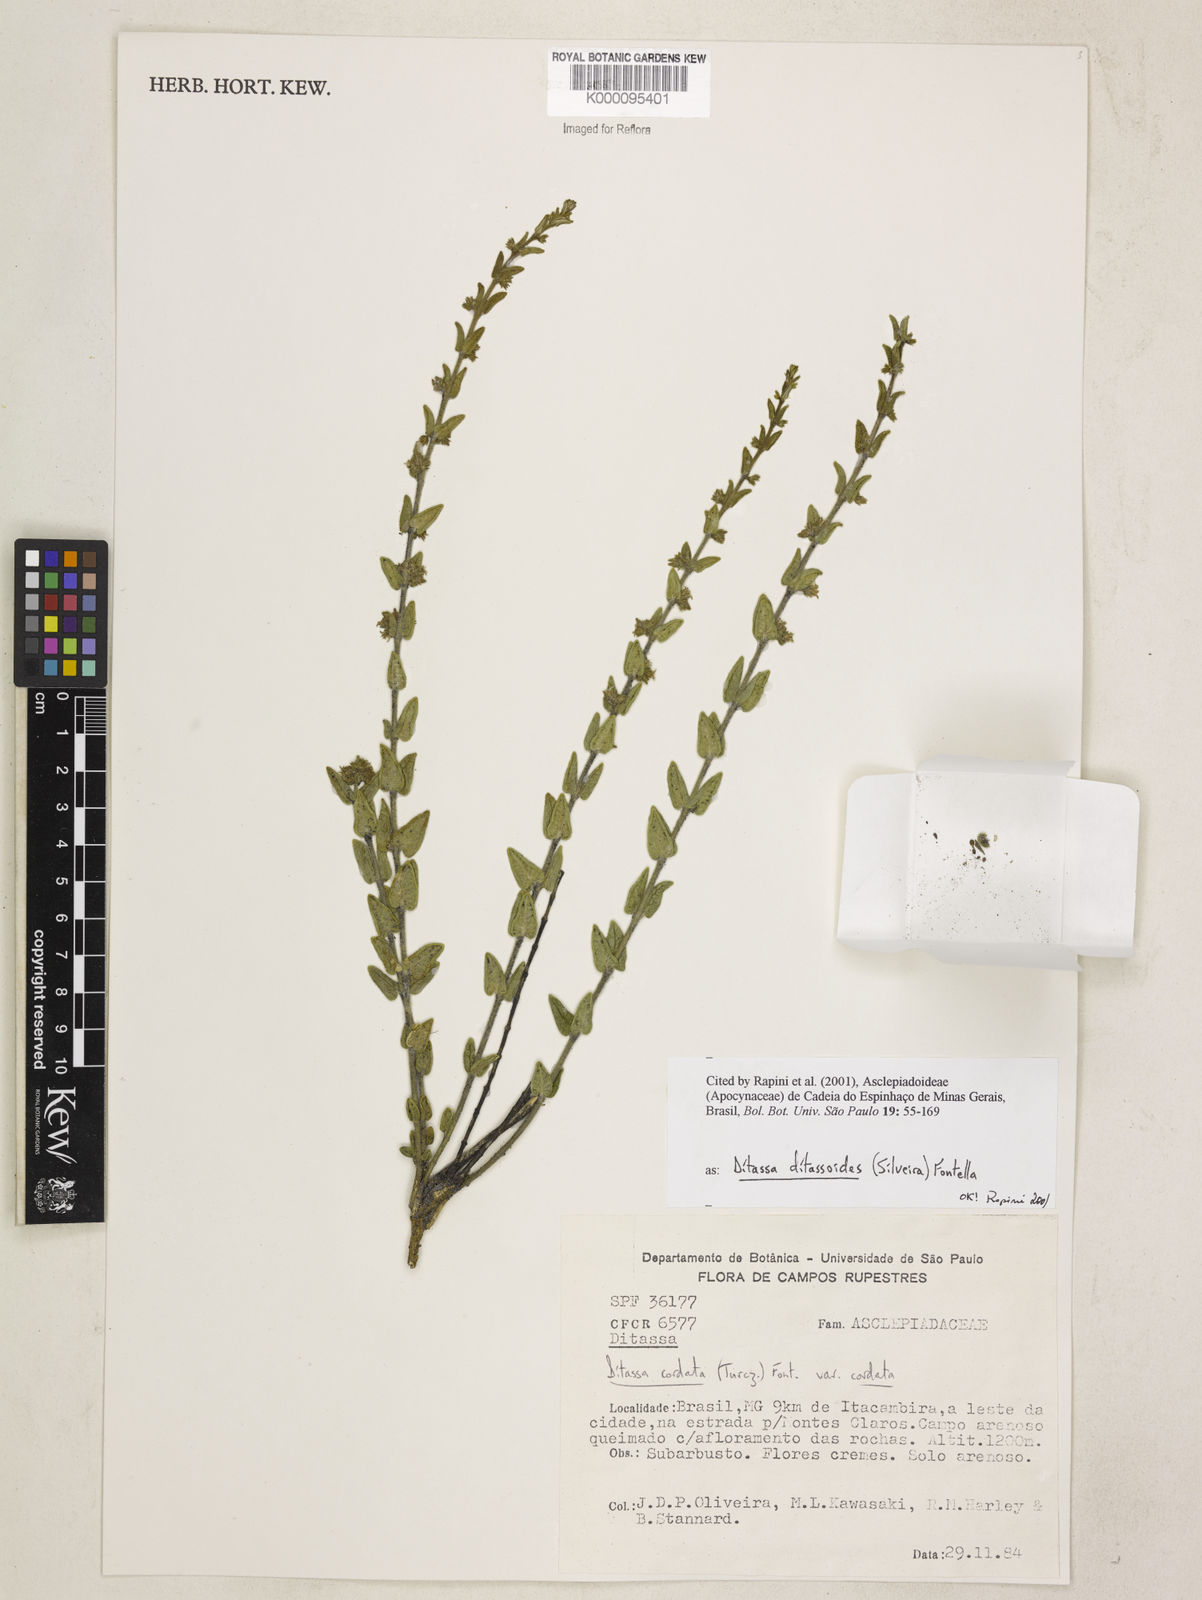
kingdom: Plantae
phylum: Tracheophyta
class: Magnoliopsida
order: Gentianales
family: Apocynaceae
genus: Minaria
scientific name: Minaria ditassoides
